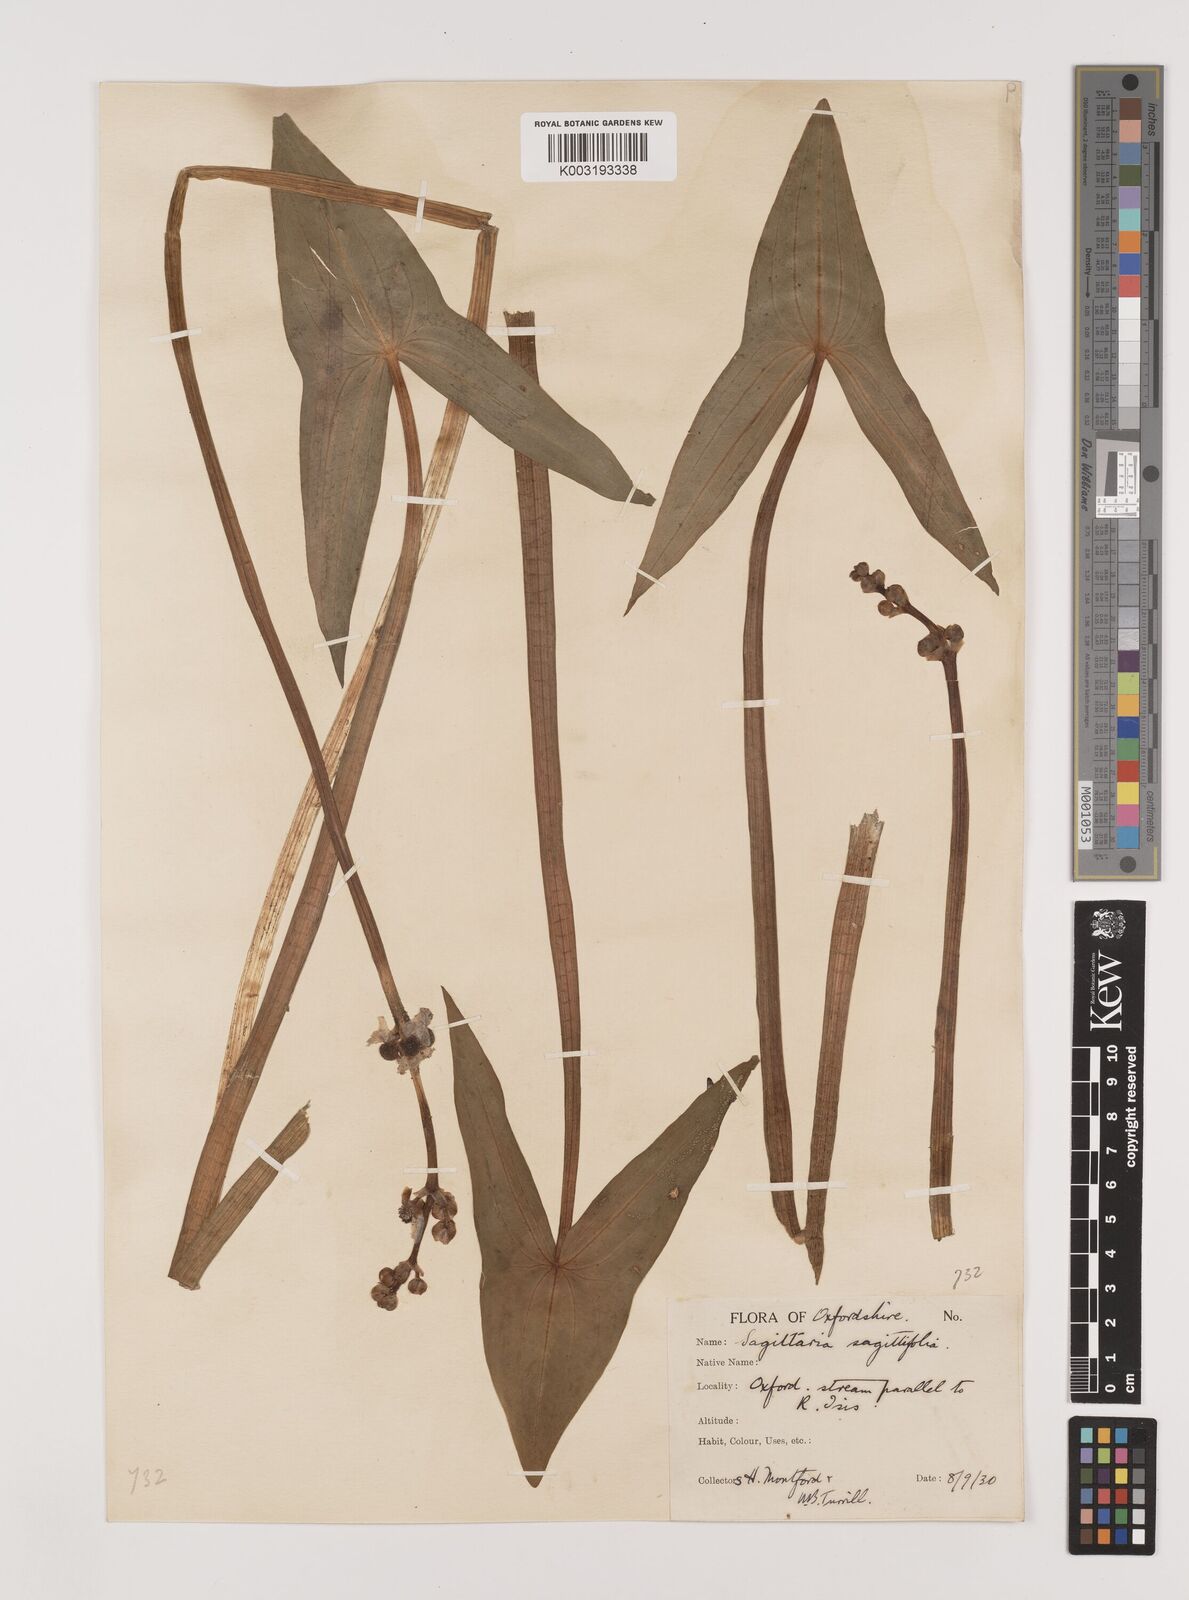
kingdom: Plantae
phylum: Tracheophyta
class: Liliopsida
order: Alismatales
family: Alismataceae
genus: Sagittaria
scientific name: Sagittaria sagittifolia
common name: Arrowhead
